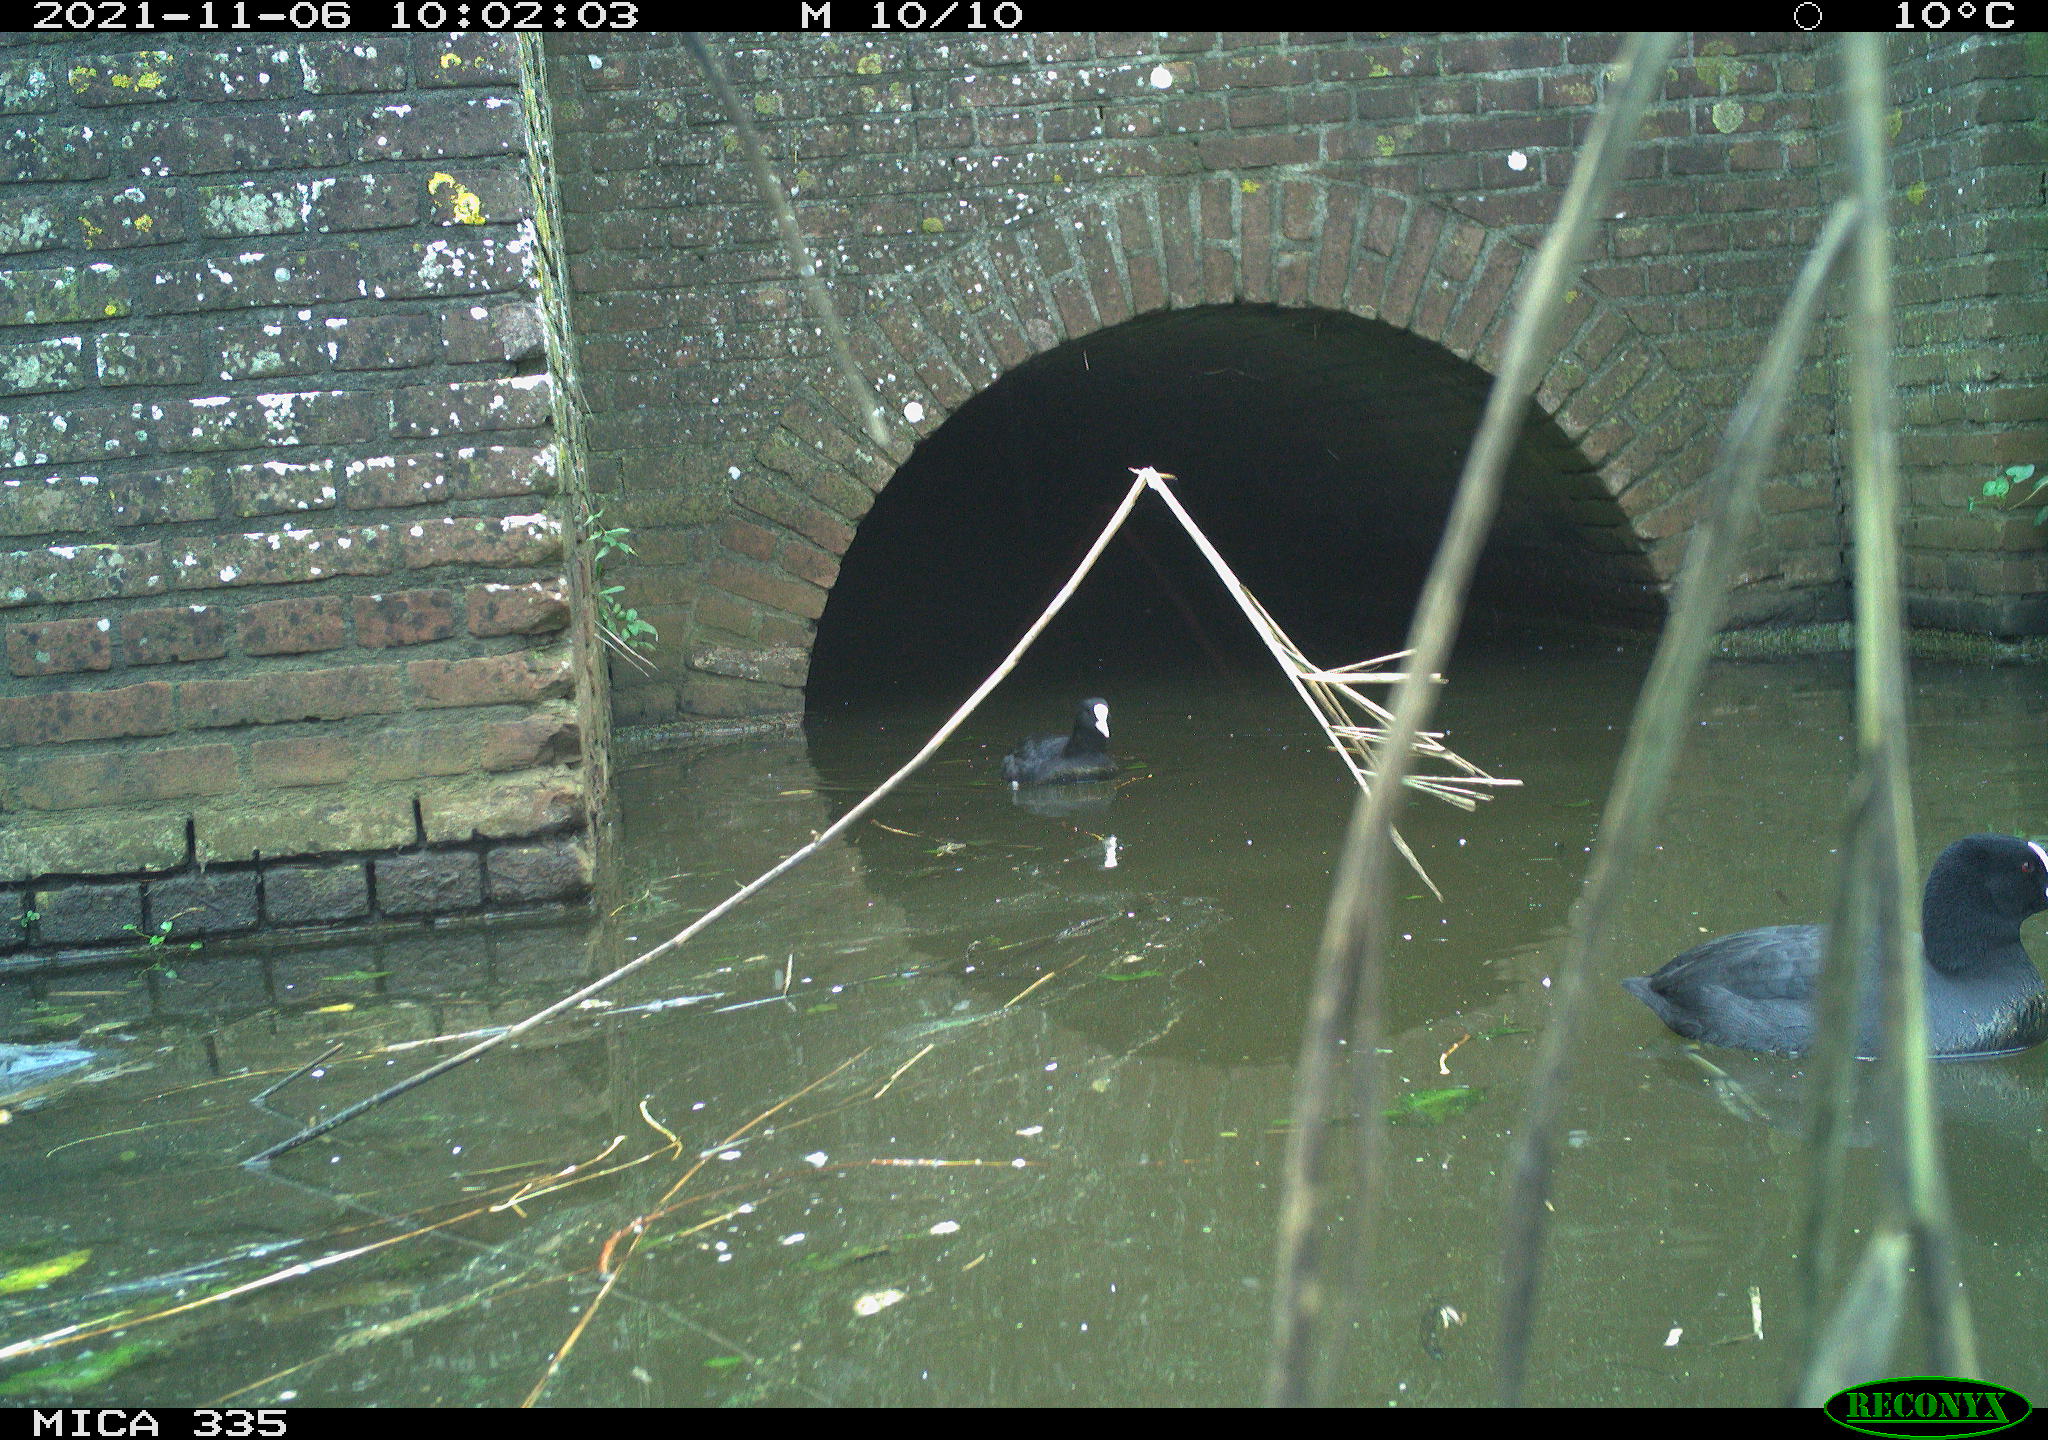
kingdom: Animalia
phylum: Chordata
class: Aves
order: Gruiformes
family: Rallidae
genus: Fulica
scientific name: Fulica atra
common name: Eurasian coot
